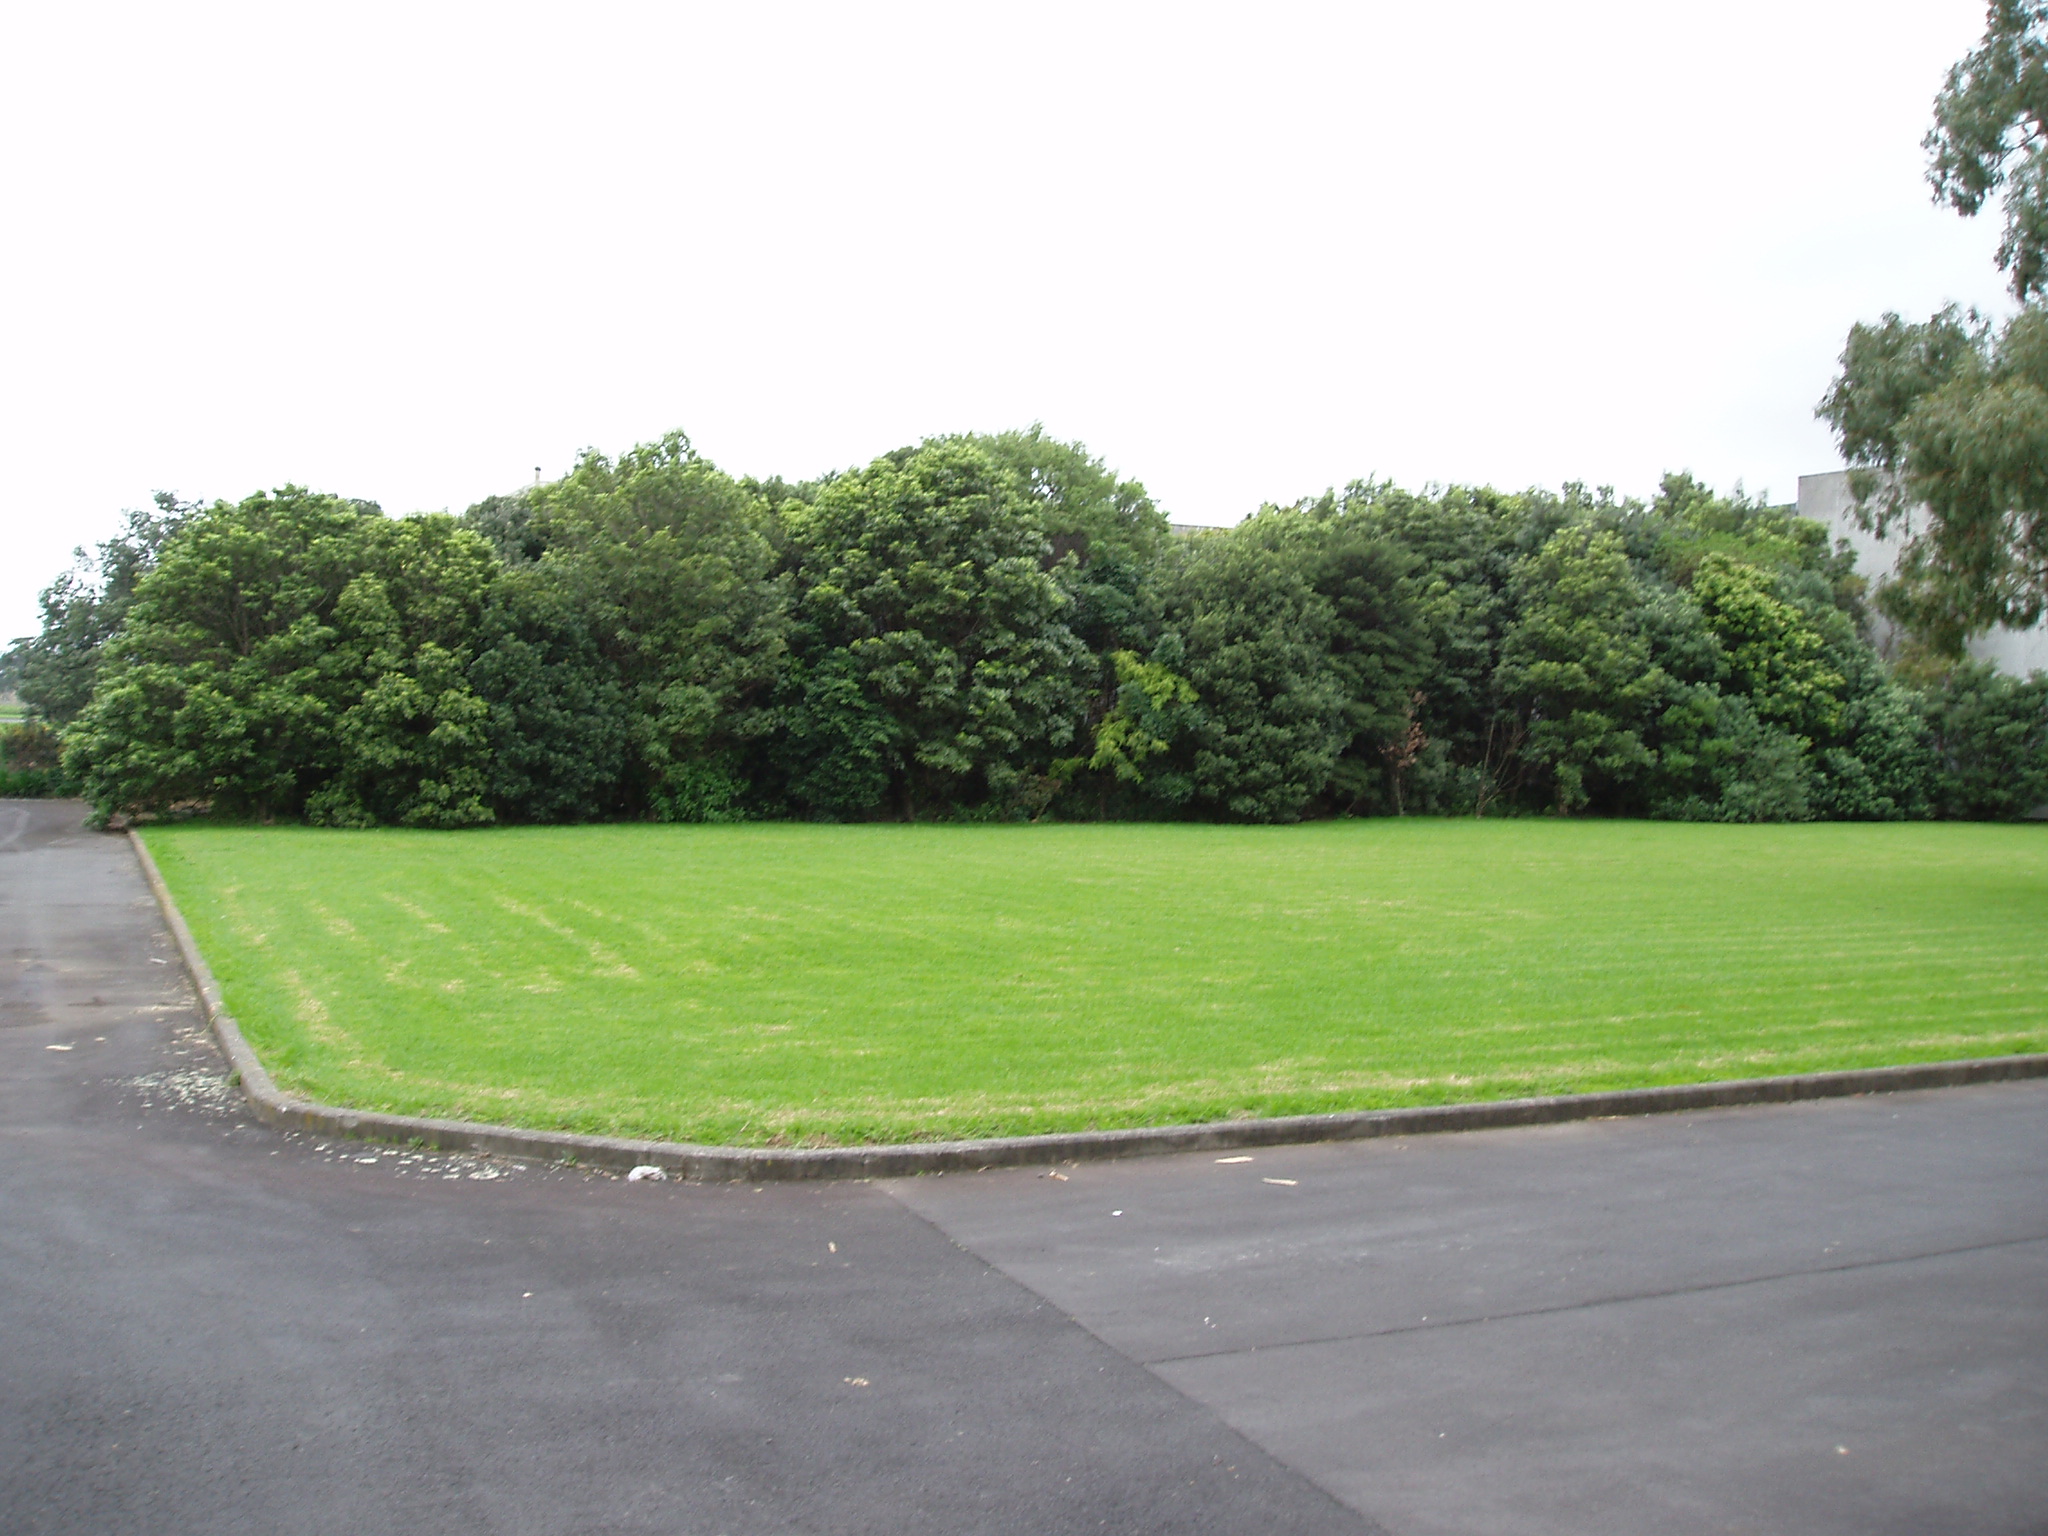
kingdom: Plantae
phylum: Tracheophyta
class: Magnoliopsida
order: Sapindales
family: Anacardiaceae
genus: Toxicodendron
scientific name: Toxicodendron succedaneum
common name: Wax tree
